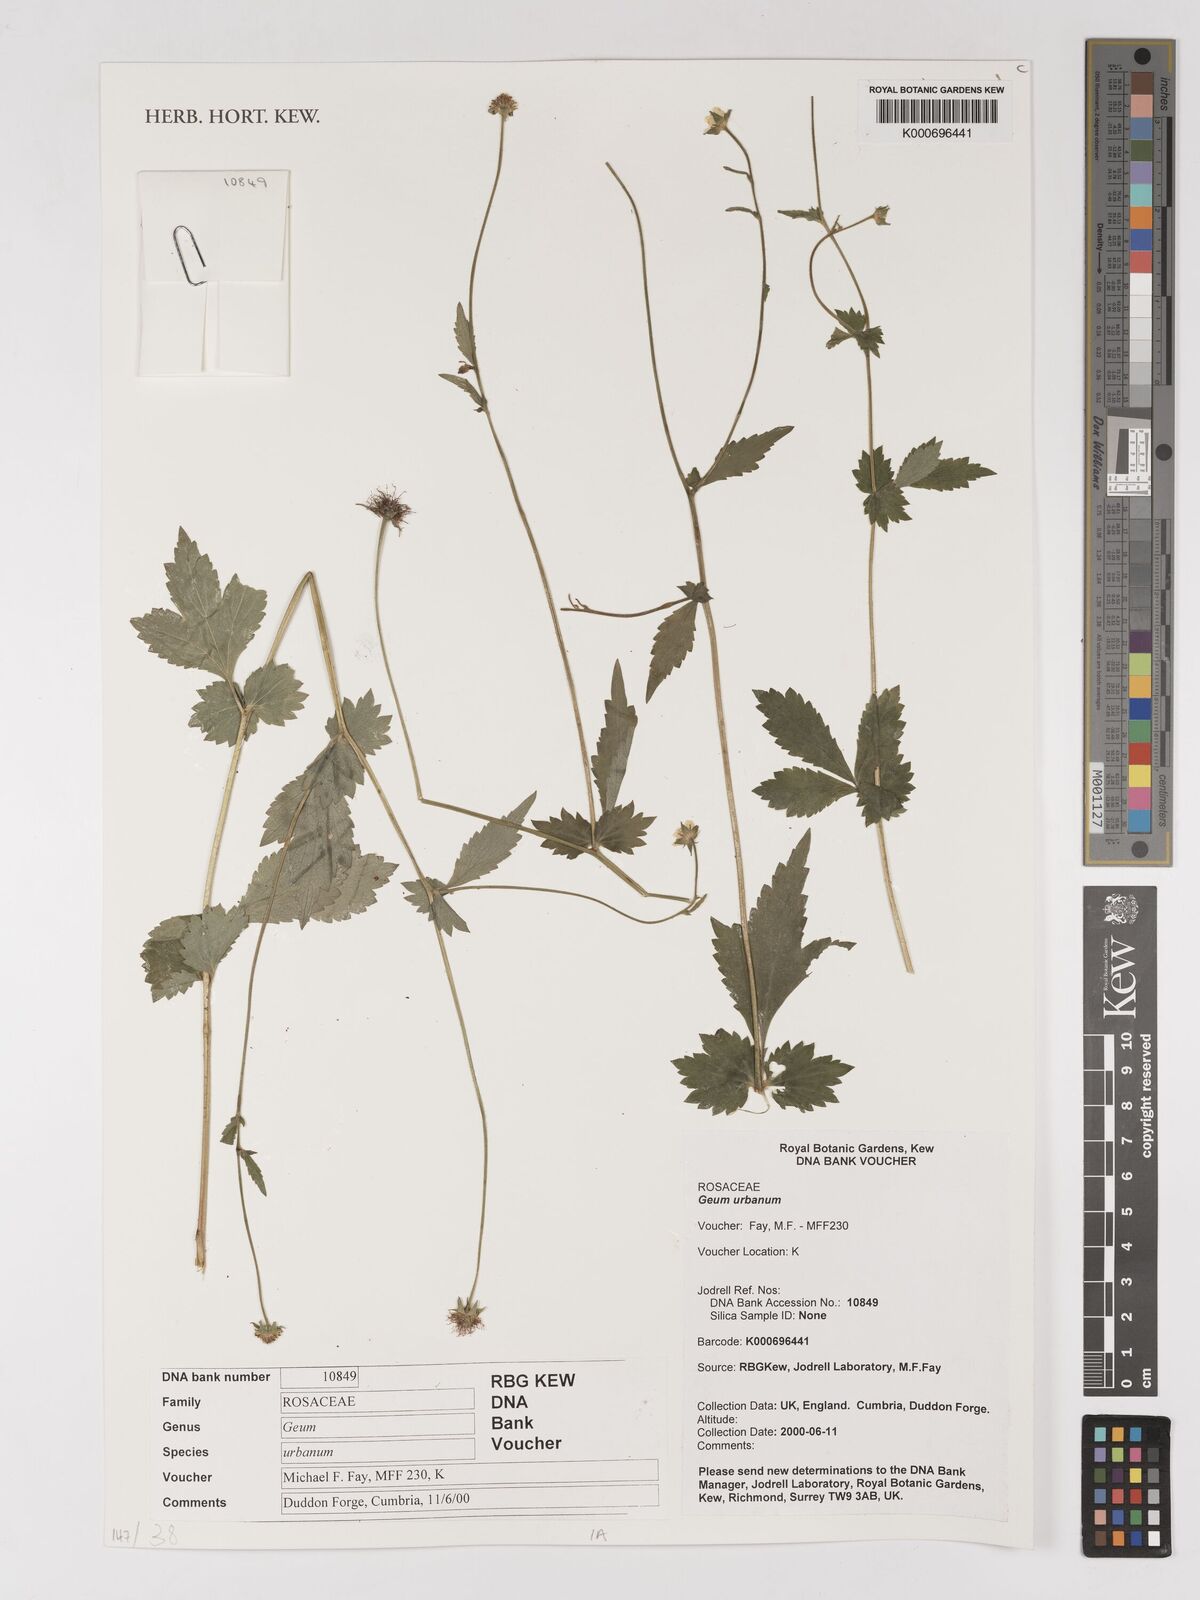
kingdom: Plantae
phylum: Tracheophyta
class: Magnoliopsida
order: Rosales
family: Rosaceae
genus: Geum
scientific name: Geum urbanum
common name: Wood avens
